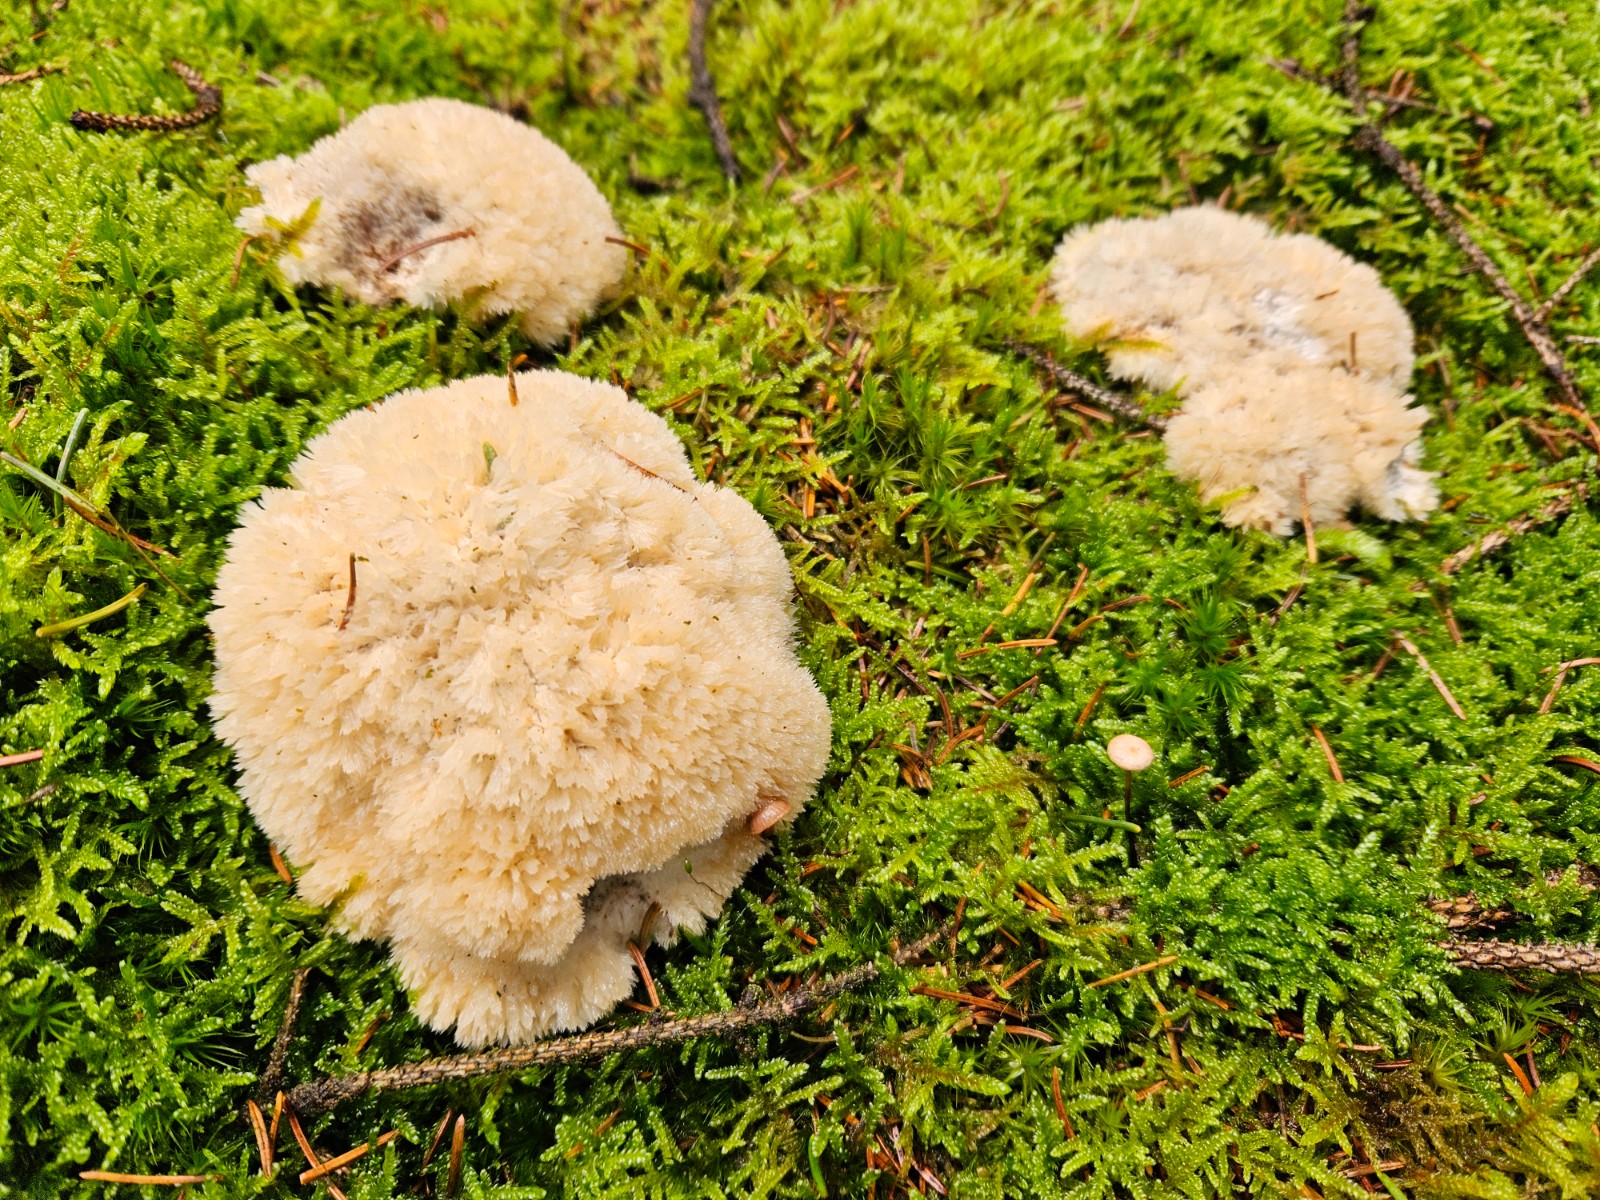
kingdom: Fungi
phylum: Basidiomycota
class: Agaricomycetes
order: Polyporales
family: Dacryobolaceae
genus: Postia
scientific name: Postia ptychogaster
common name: støvende kødporesvamp
